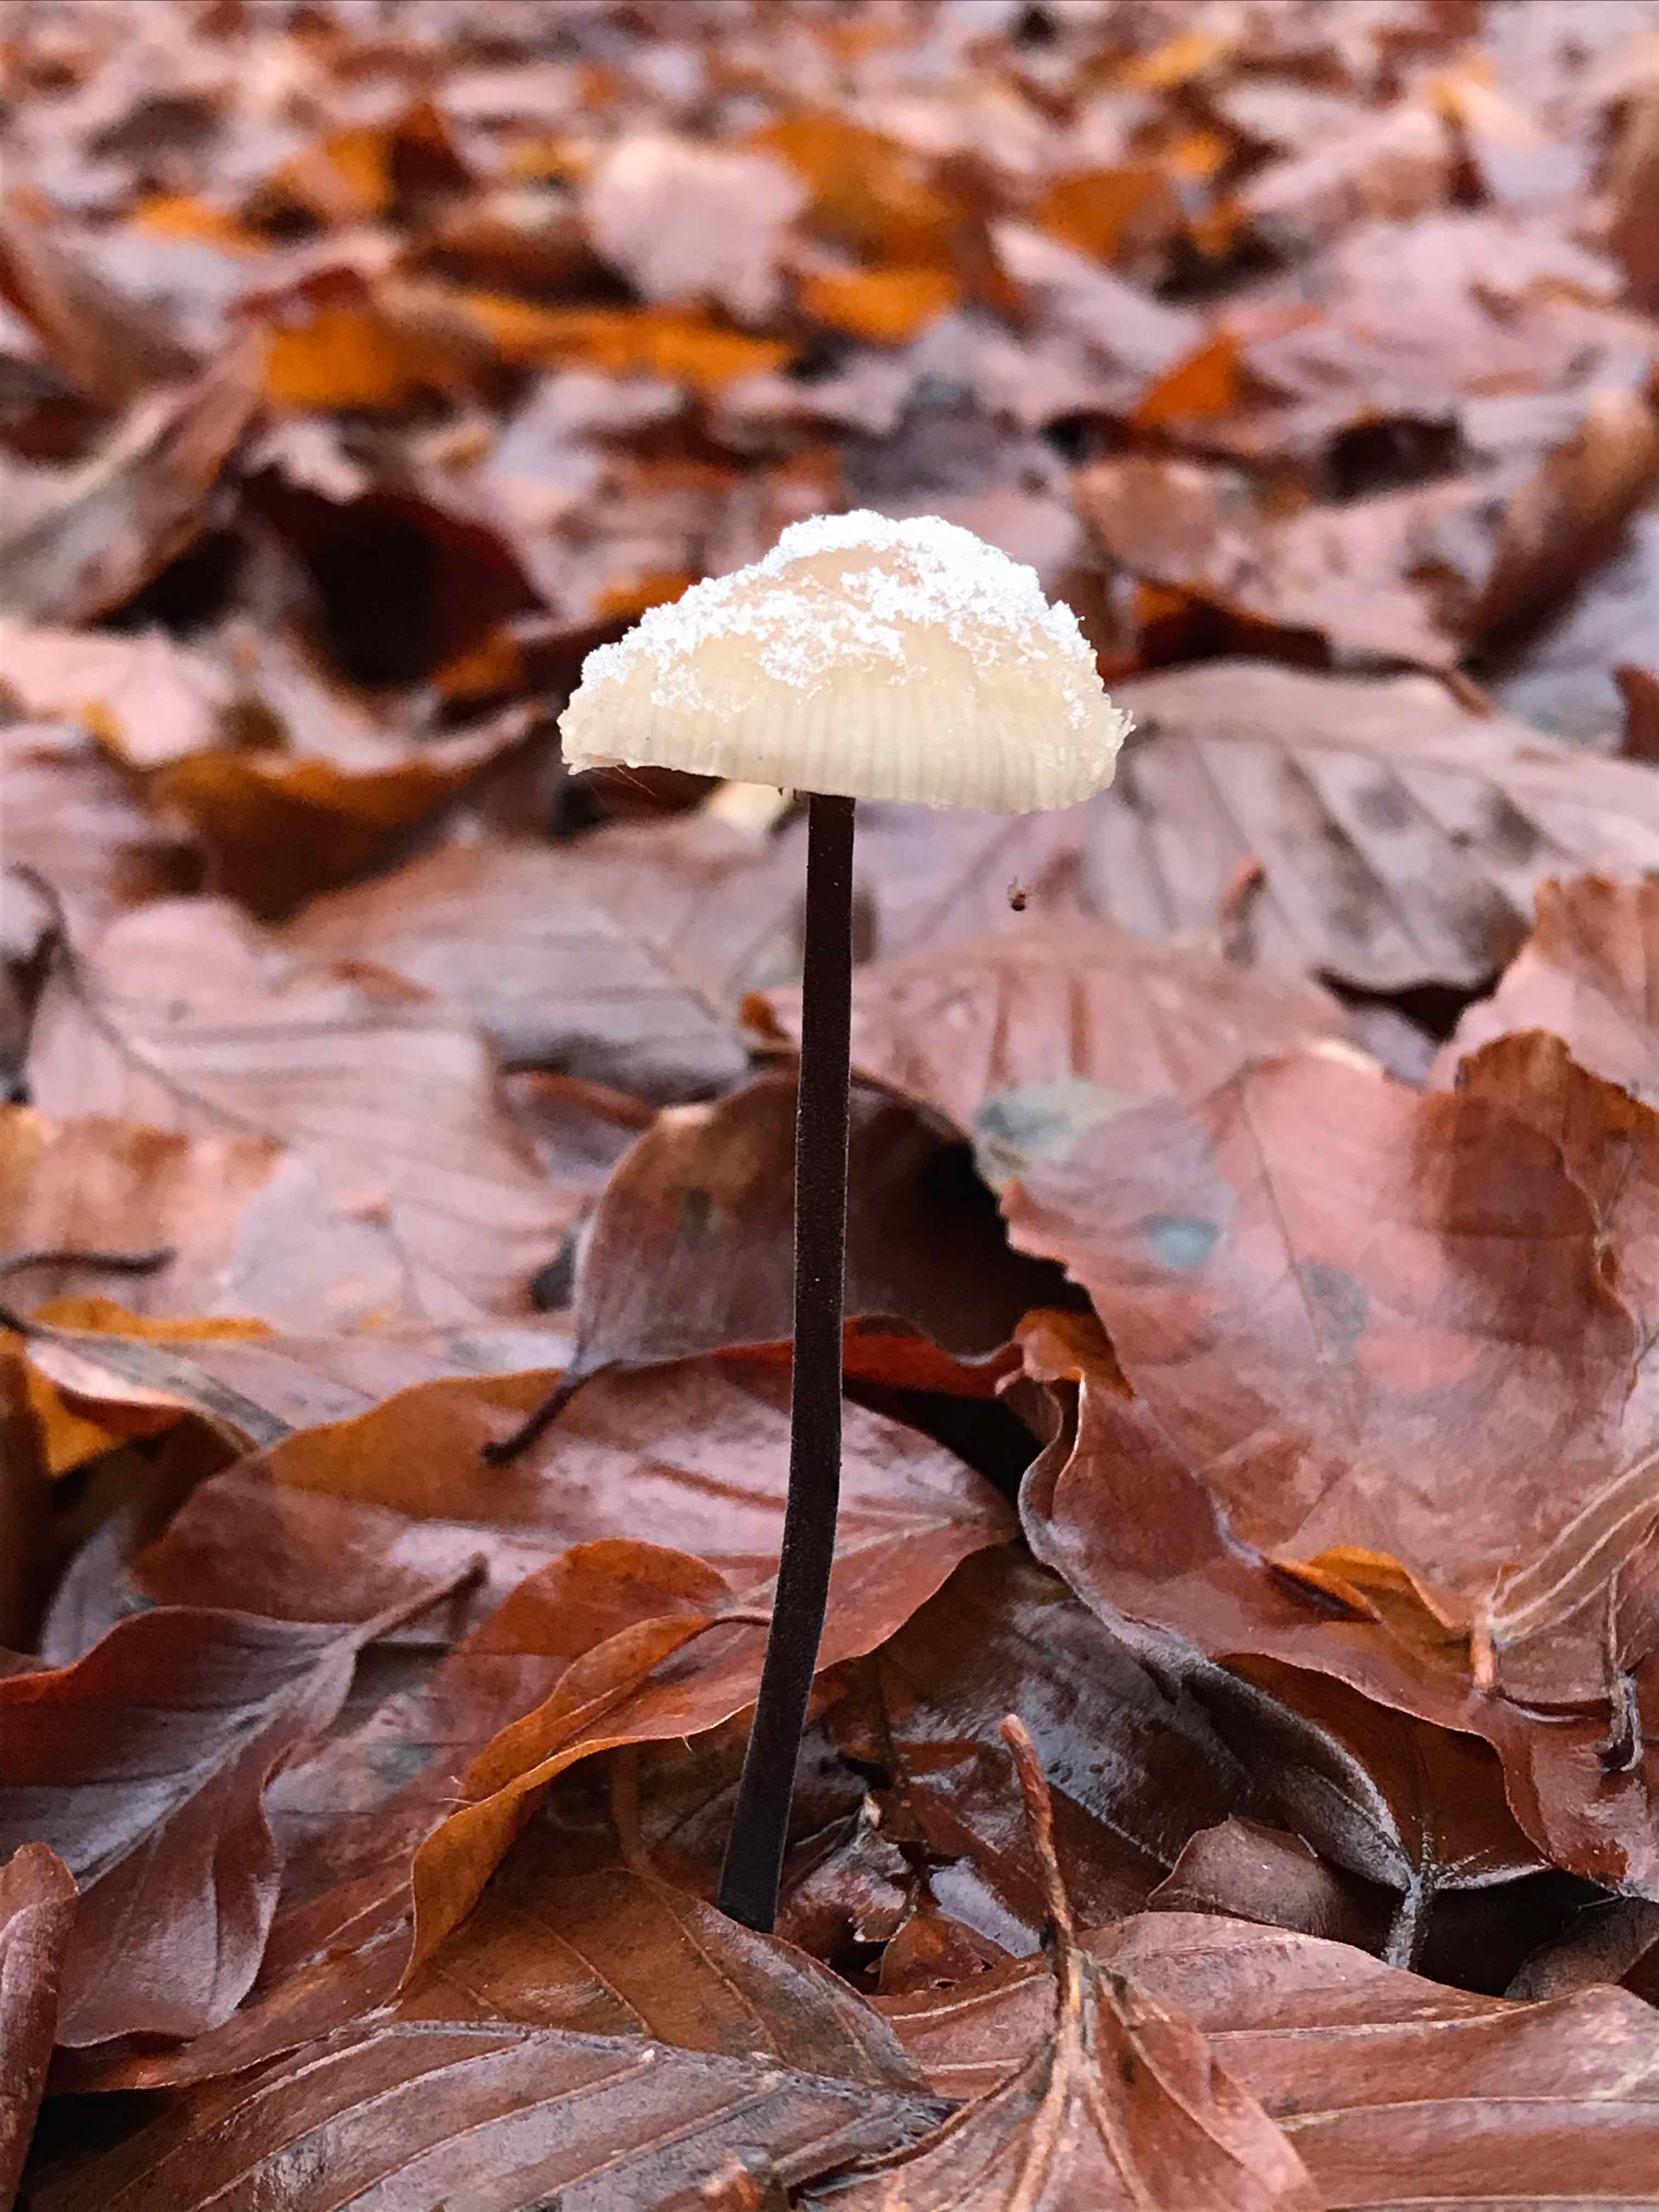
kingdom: Fungi
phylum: Basidiomycota
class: Agaricomycetes
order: Agaricales
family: Omphalotaceae
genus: Mycetinis
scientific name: Mycetinis alliaceus
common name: stor løghat
